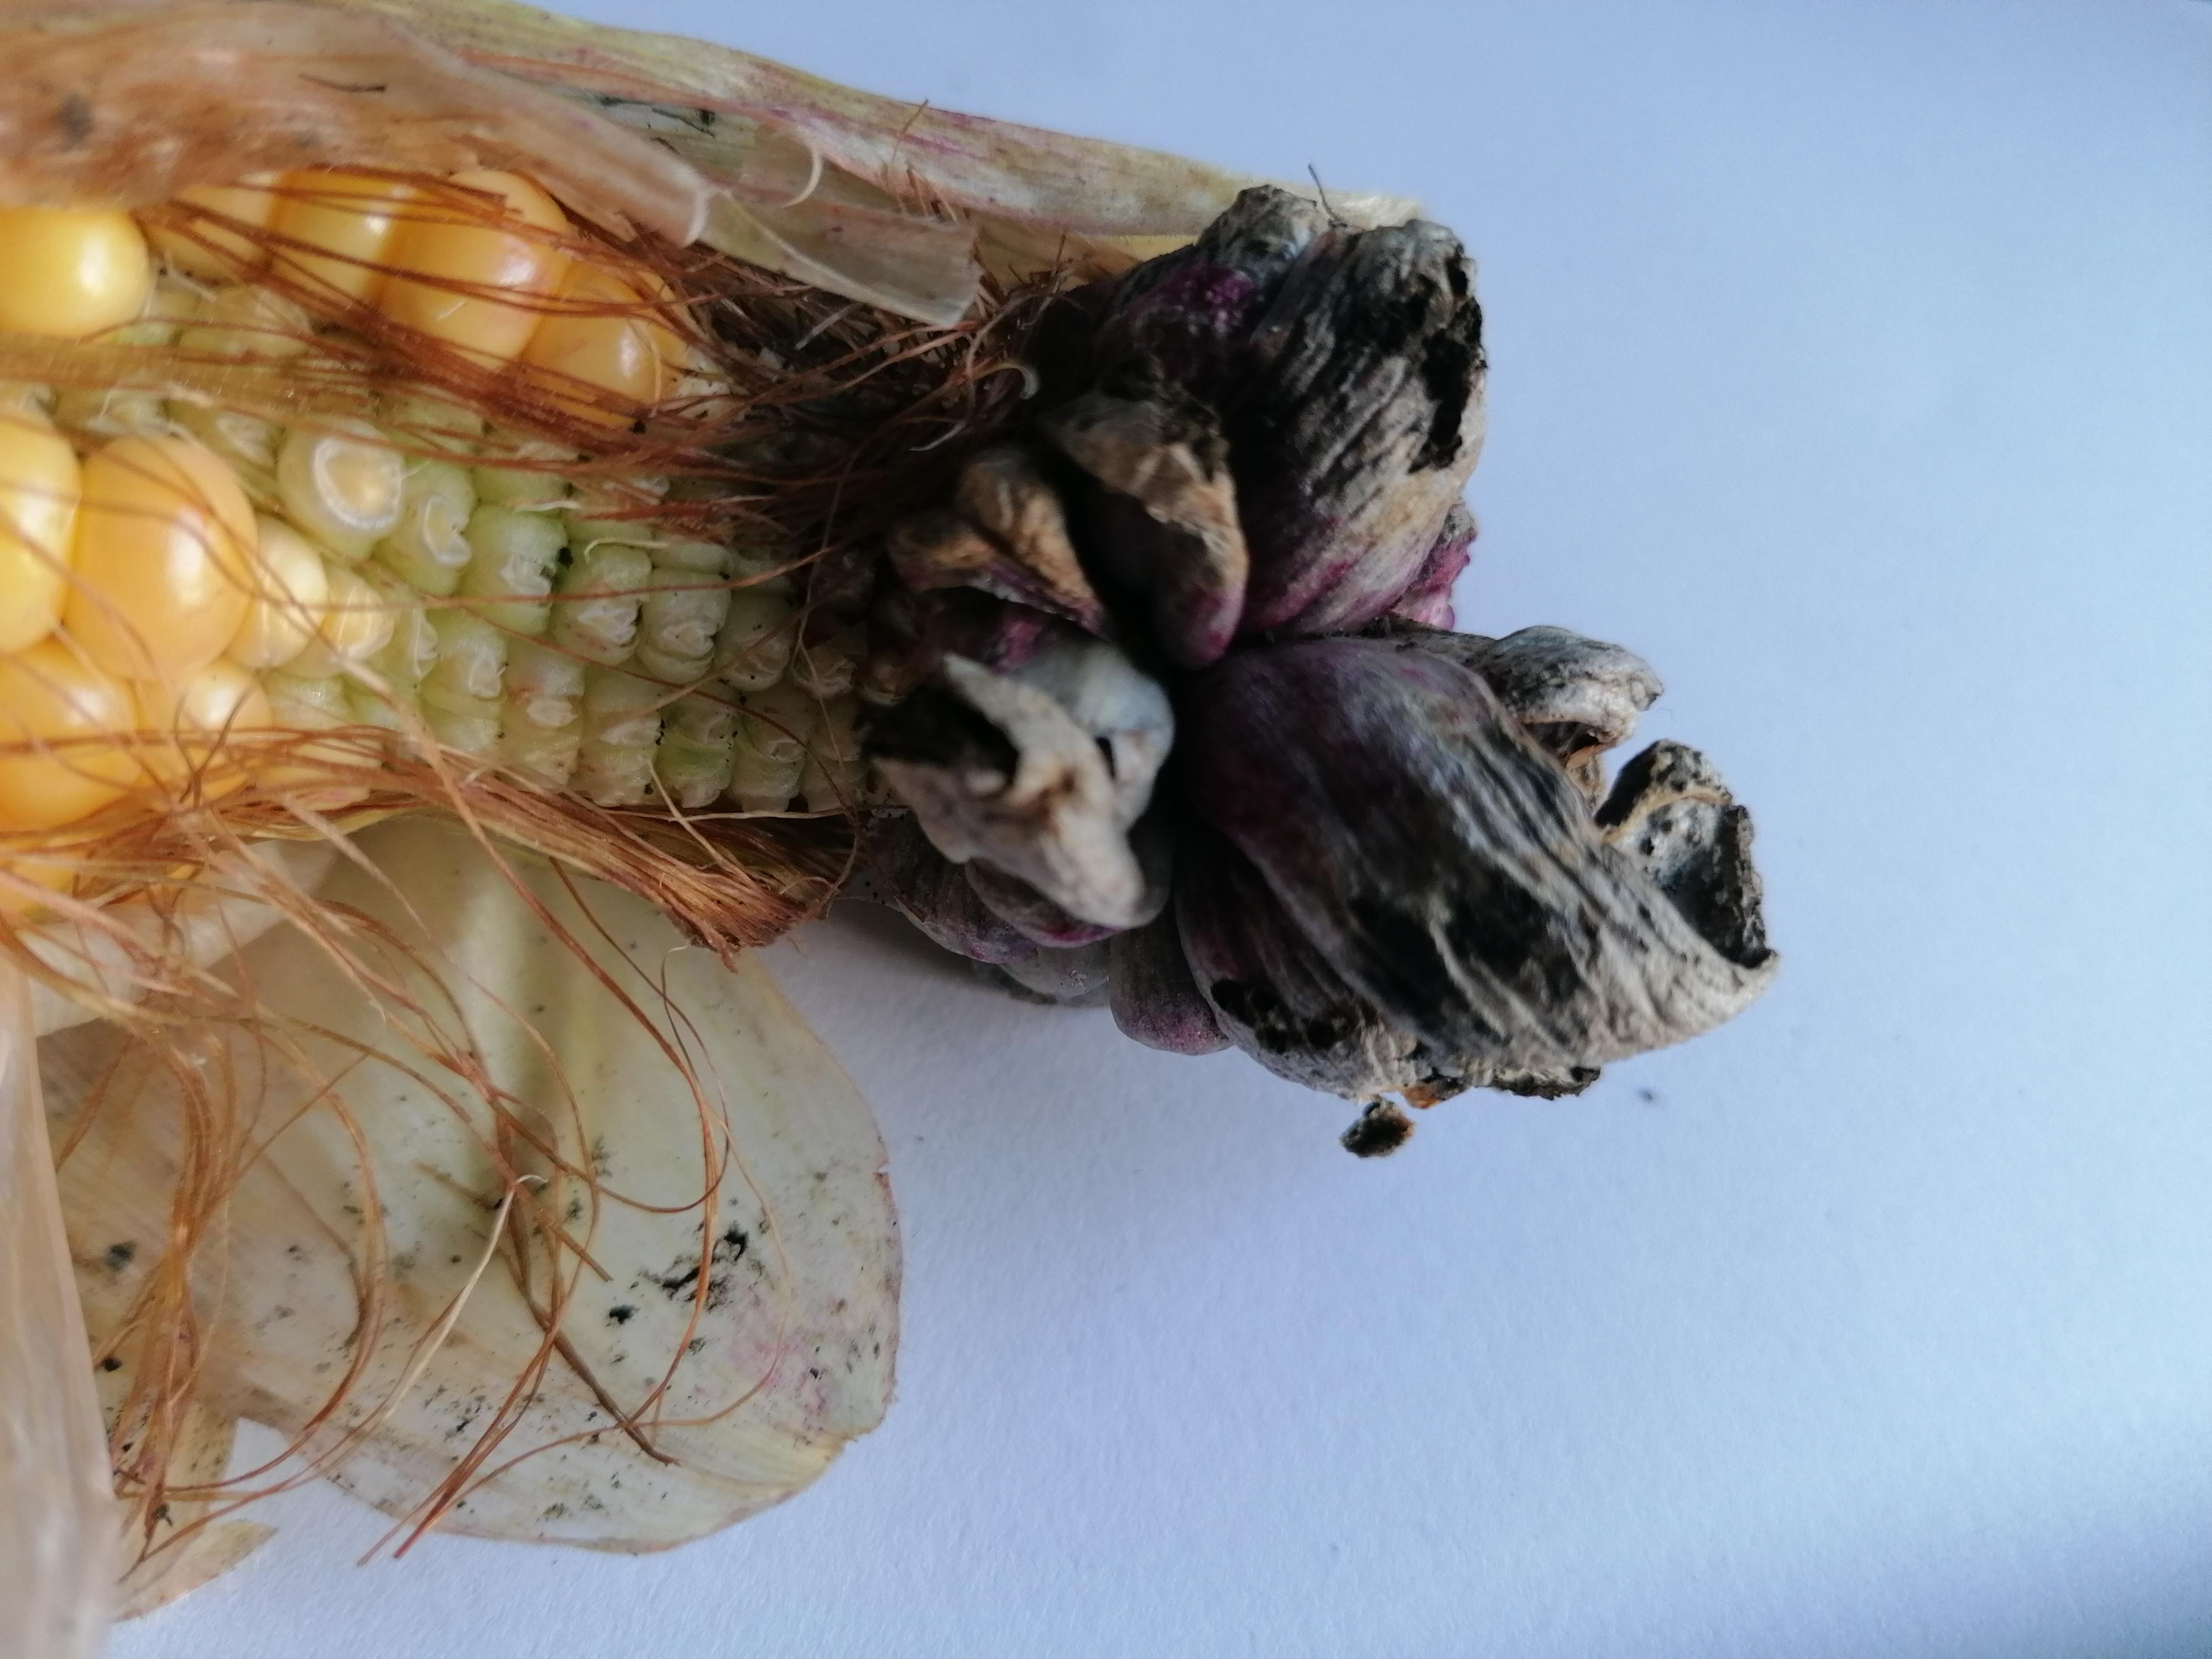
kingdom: Fungi
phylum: Basidiomycota
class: Ustilaginomycetes
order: Ustilaginales
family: Ustilaginaceae
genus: Mycosarcoma
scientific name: Mycosarcoma maydis
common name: majs-brand
